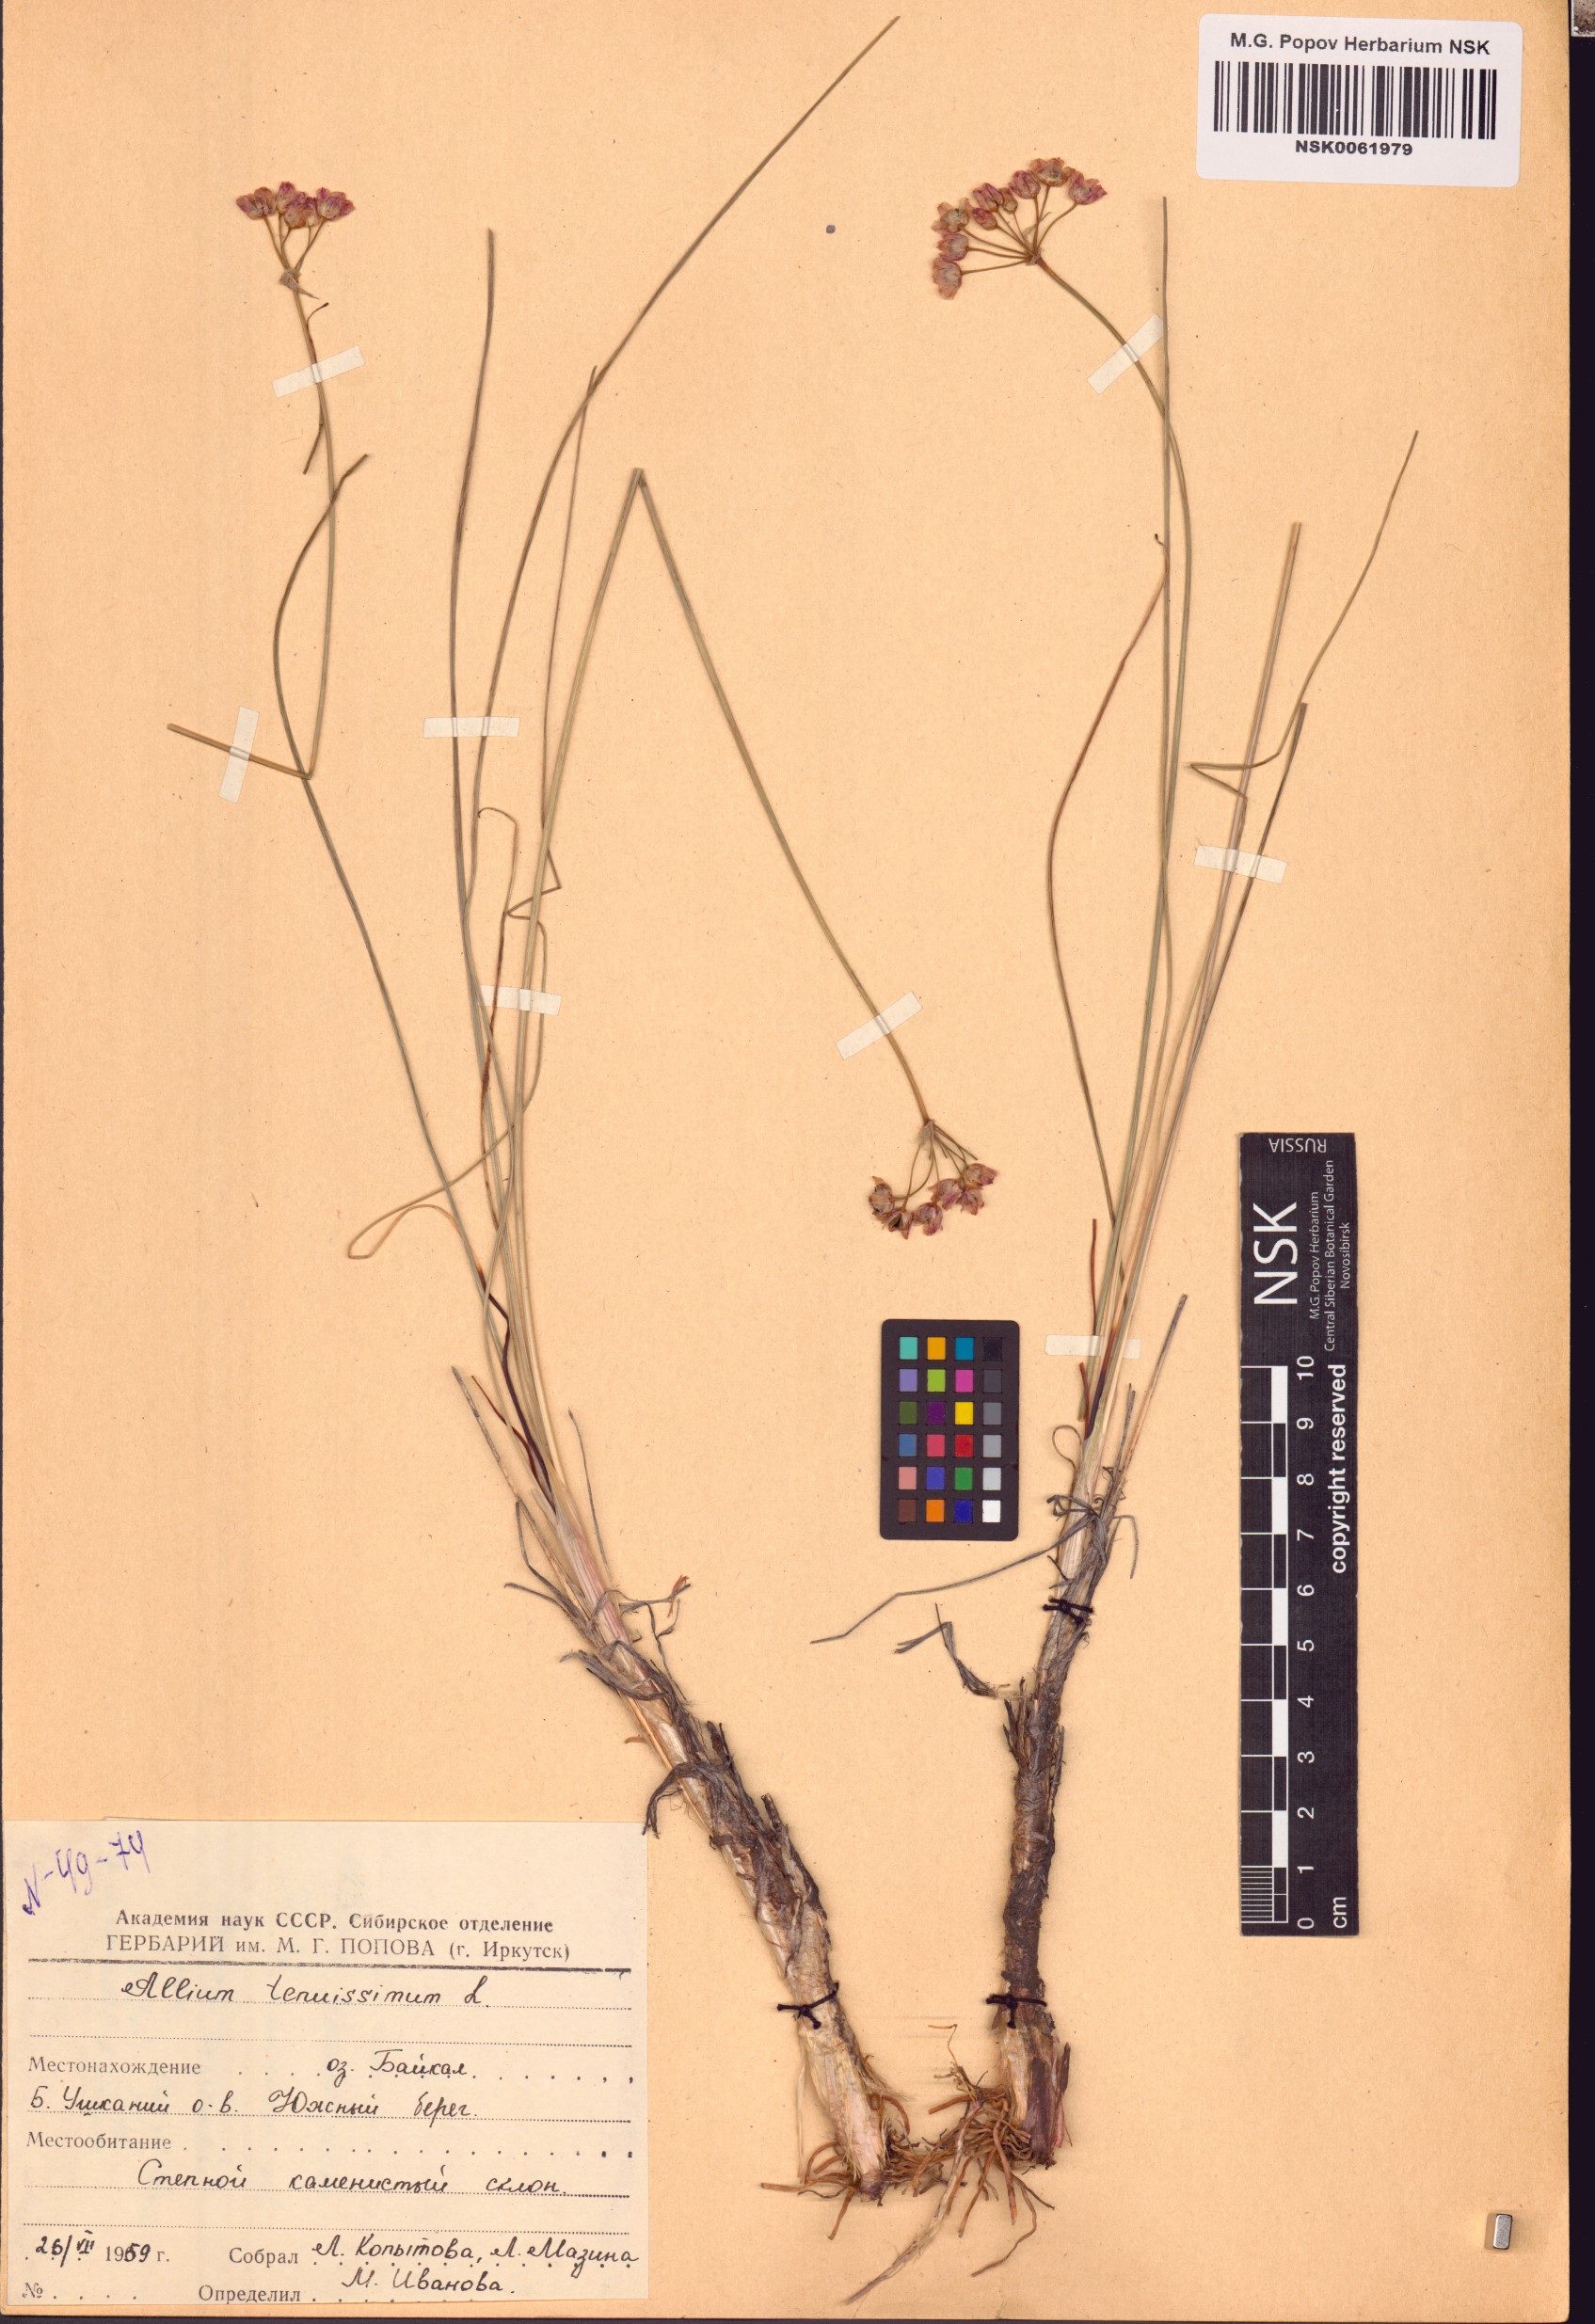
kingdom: Plantae
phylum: Tracheophyta
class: Liliopsida
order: Asparagales
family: Amaryllidaceae
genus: Allium
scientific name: Allium tenuissimum
